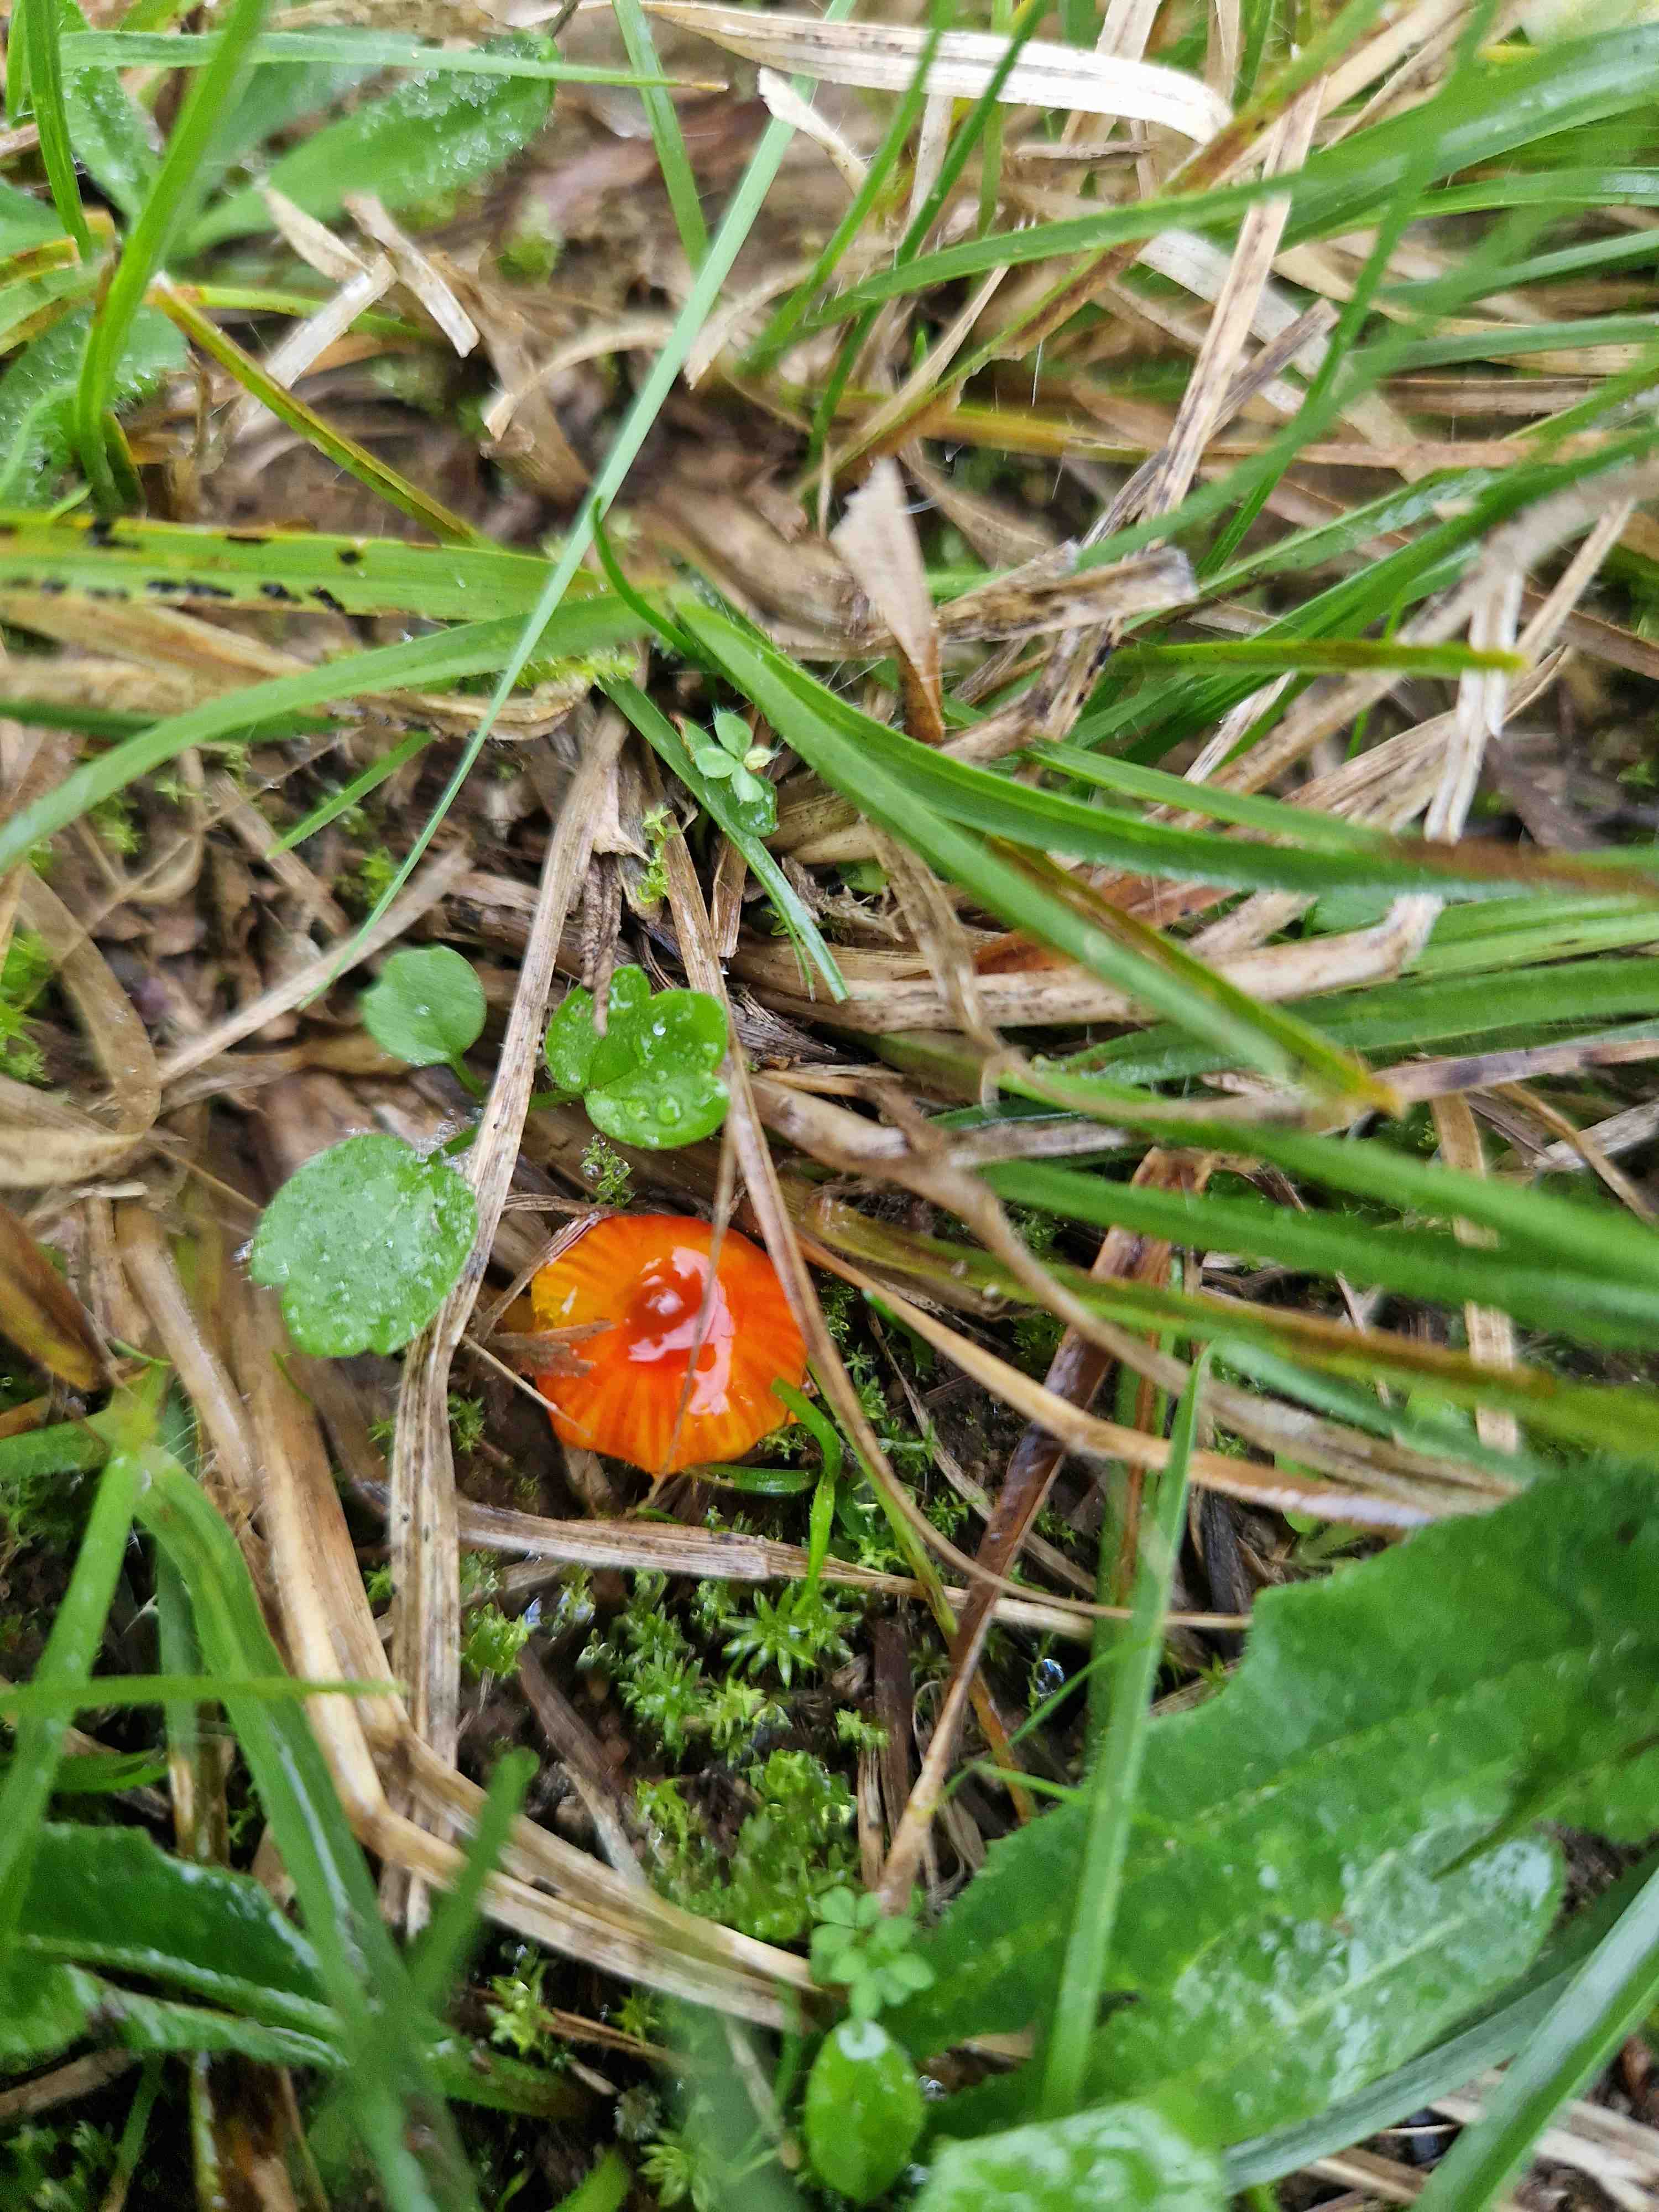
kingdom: Fungi
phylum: Basidiomycota
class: Agaricomycetes
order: Agaricales
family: Hygrophoraceae
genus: Hygrocybe
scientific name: Hygrocybe conica
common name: kegle-vokshat
